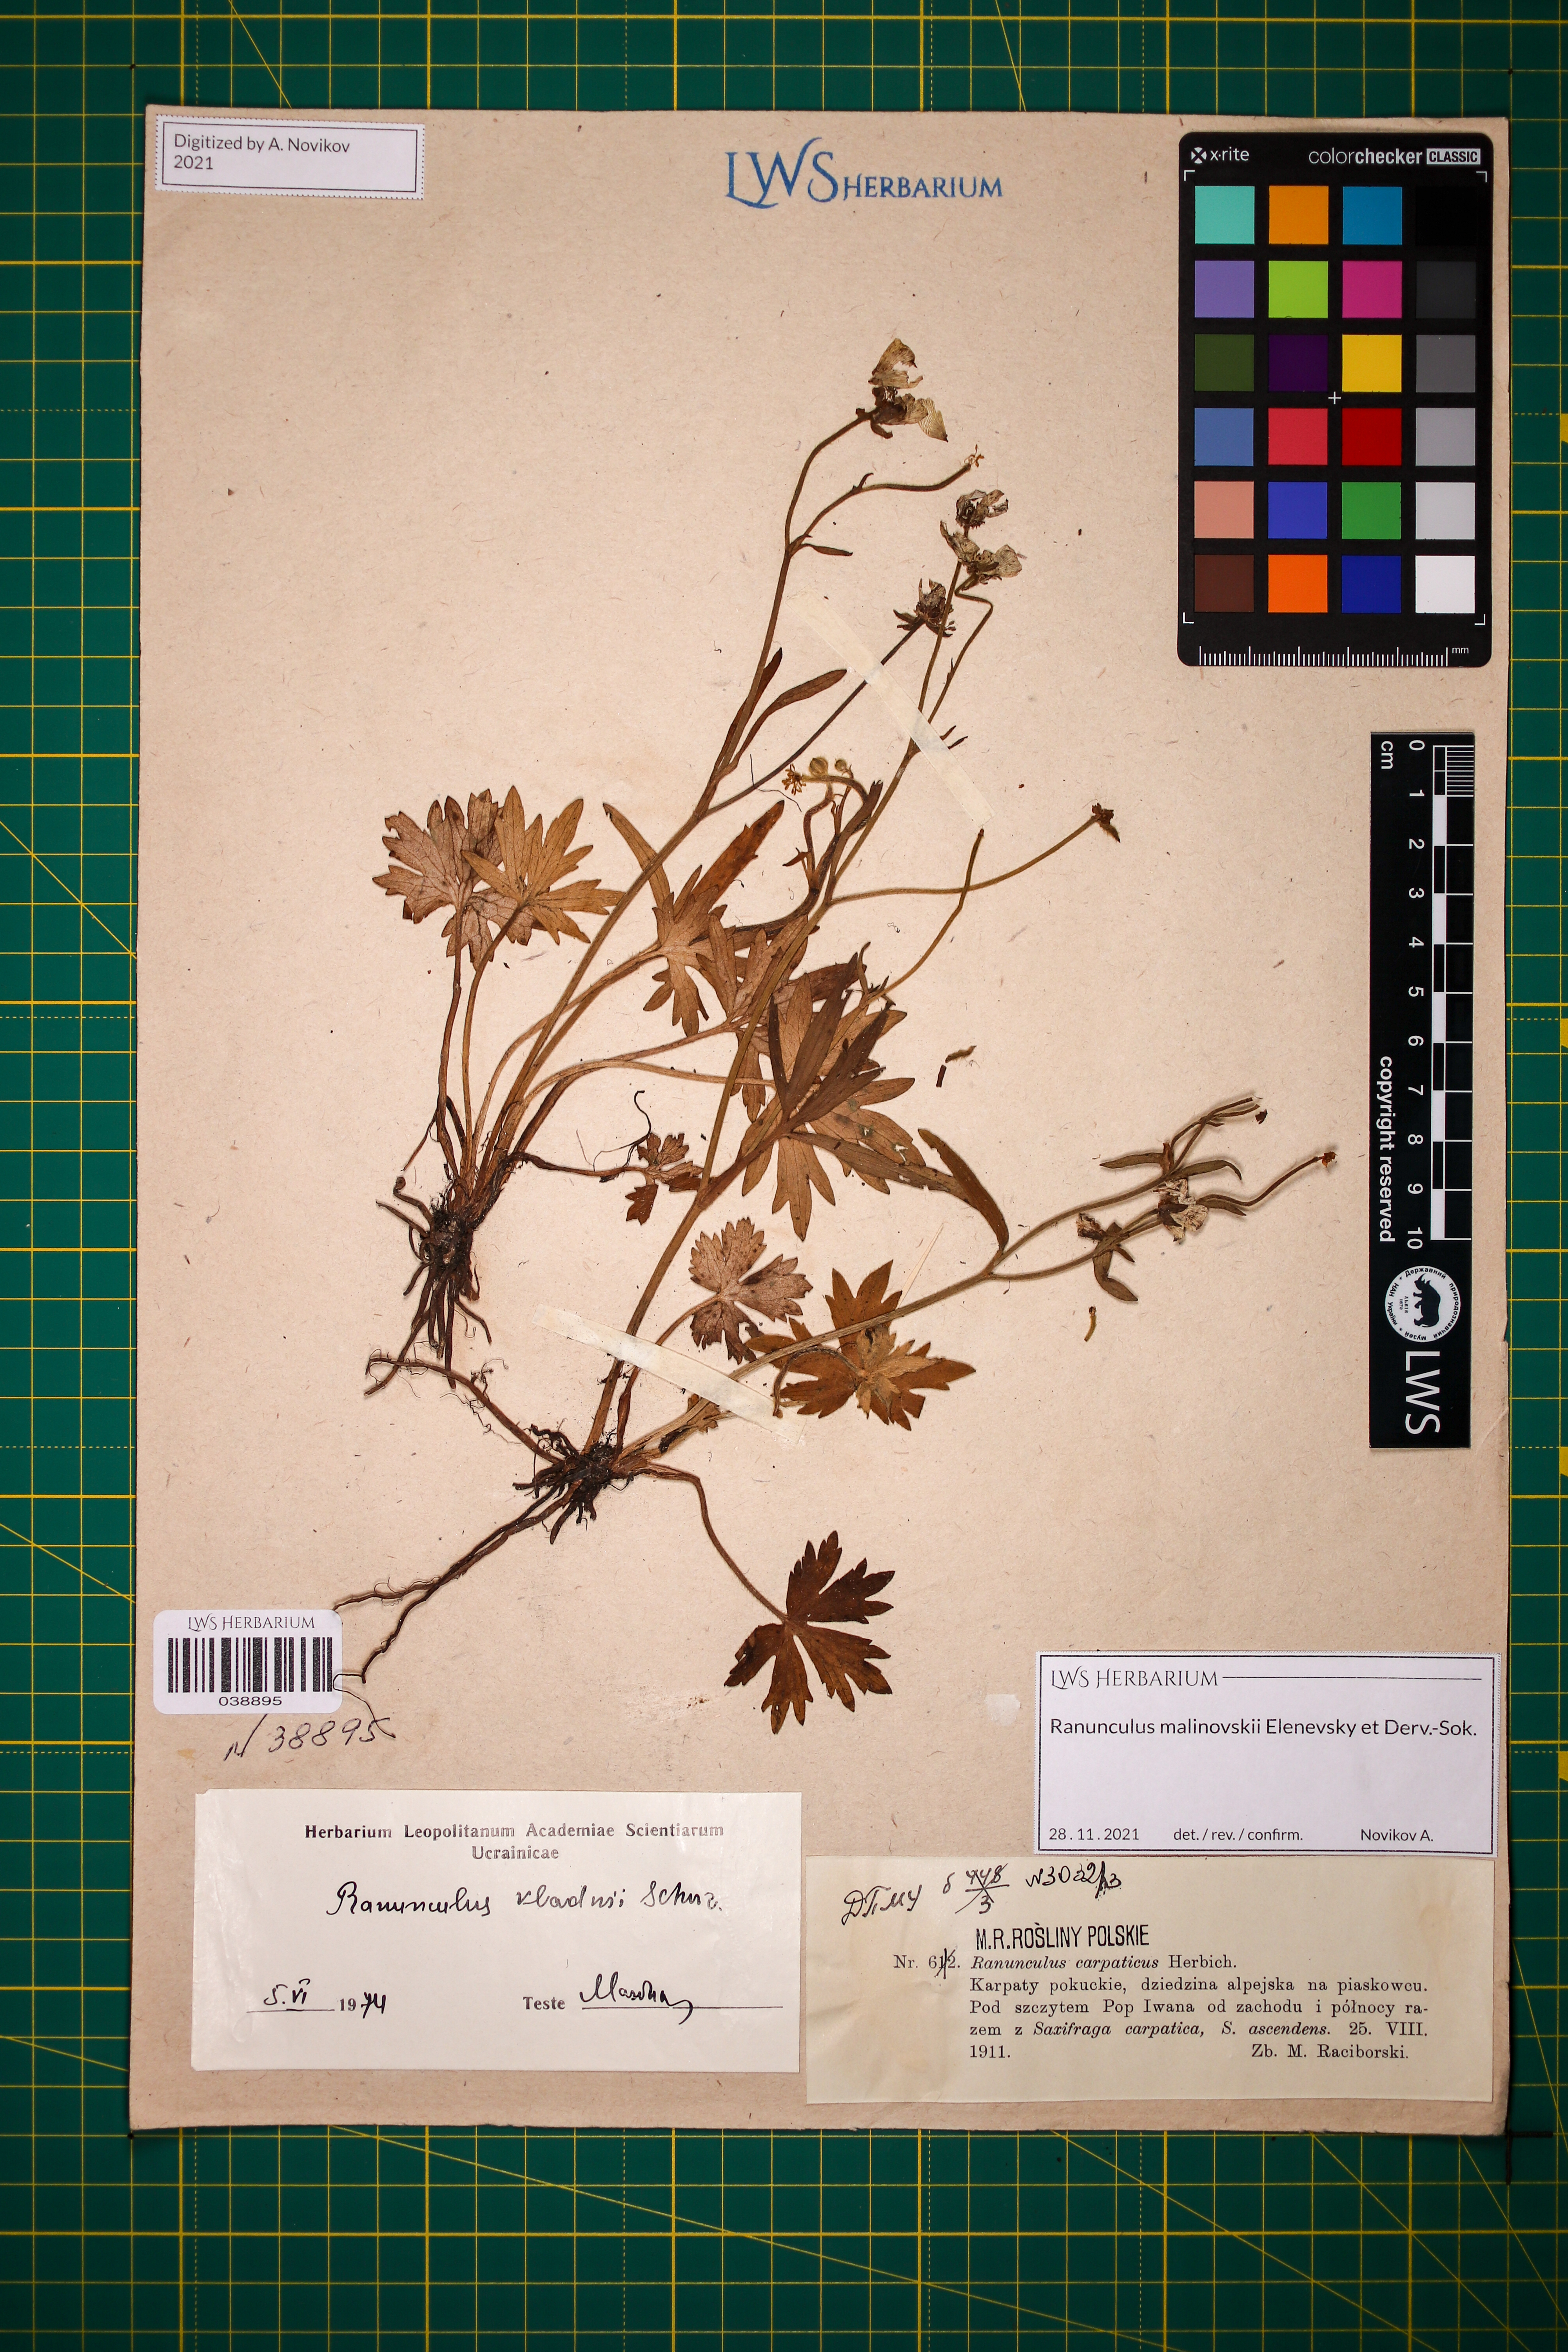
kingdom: Plantae
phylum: Tracheophyta
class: Magnoliopsida
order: Ranunculales
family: Ranunculaceae
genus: Ranunculus
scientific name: Ranunculus malinovskii
